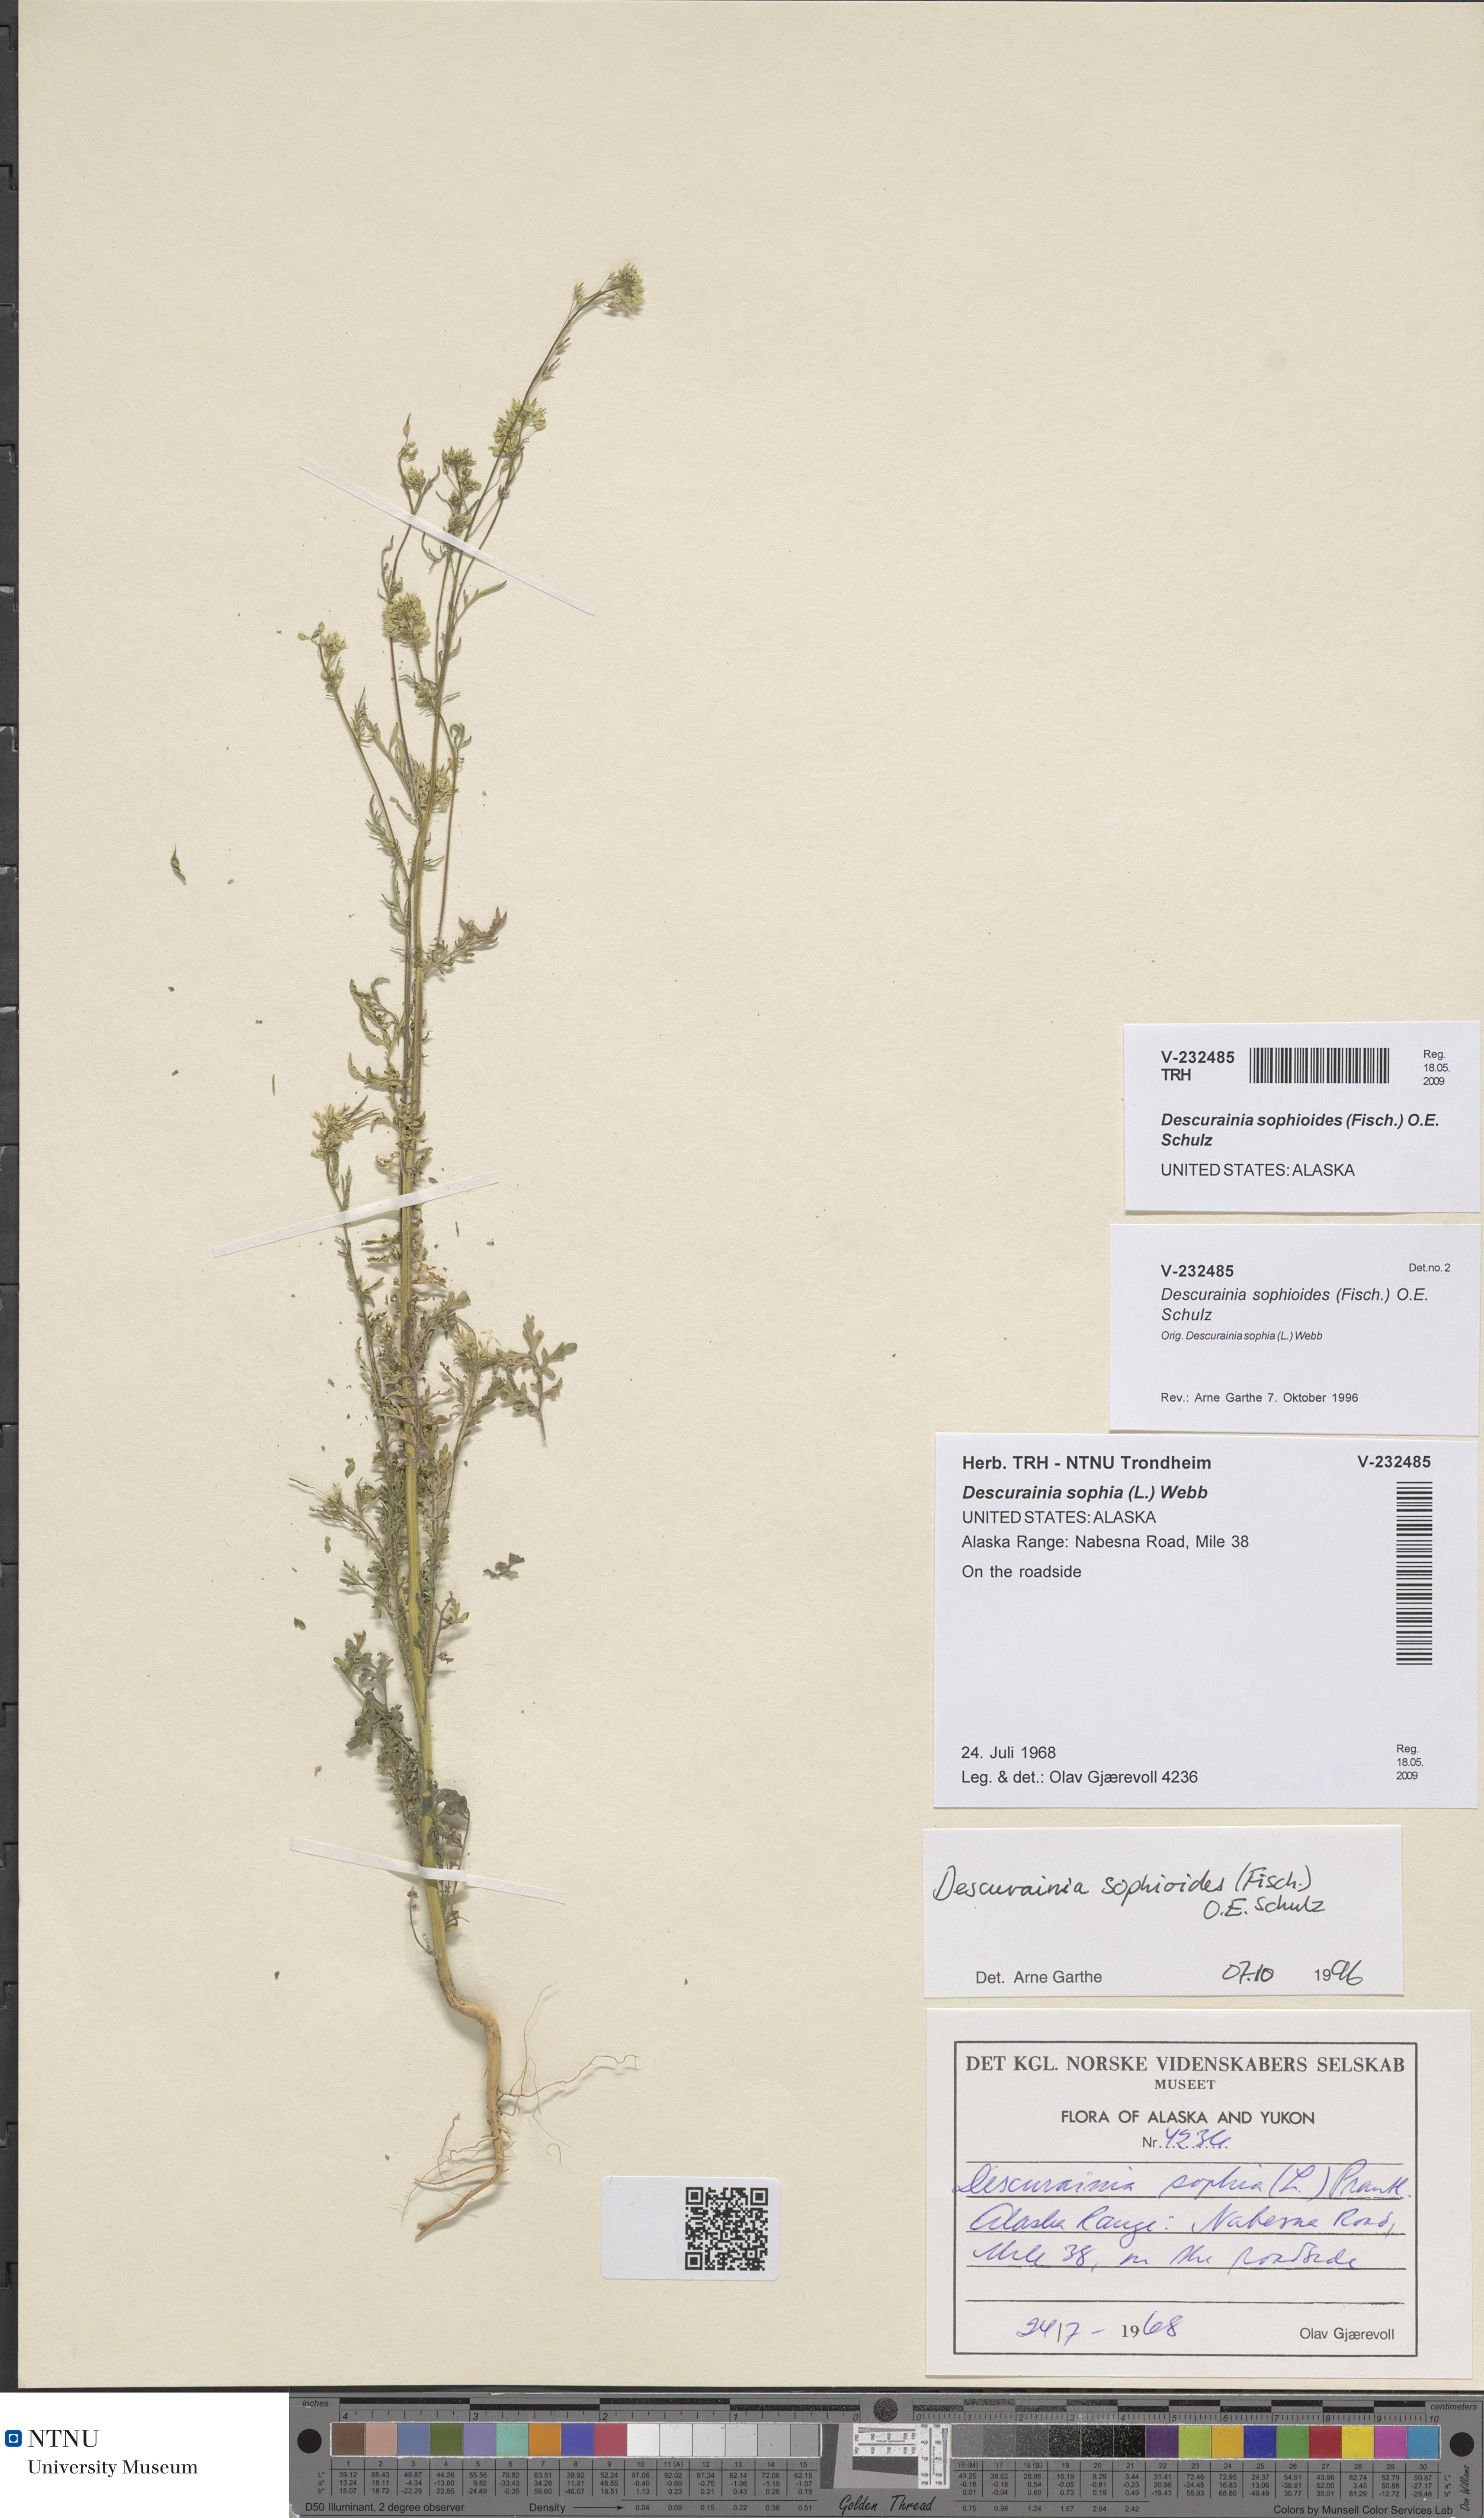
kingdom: Plantae
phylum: Tracheophyta
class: Magnoliopsida
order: Brassicales
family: Brassicaceae
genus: Descurainia
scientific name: Descurainia sophioides
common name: Northern tansy mustard
